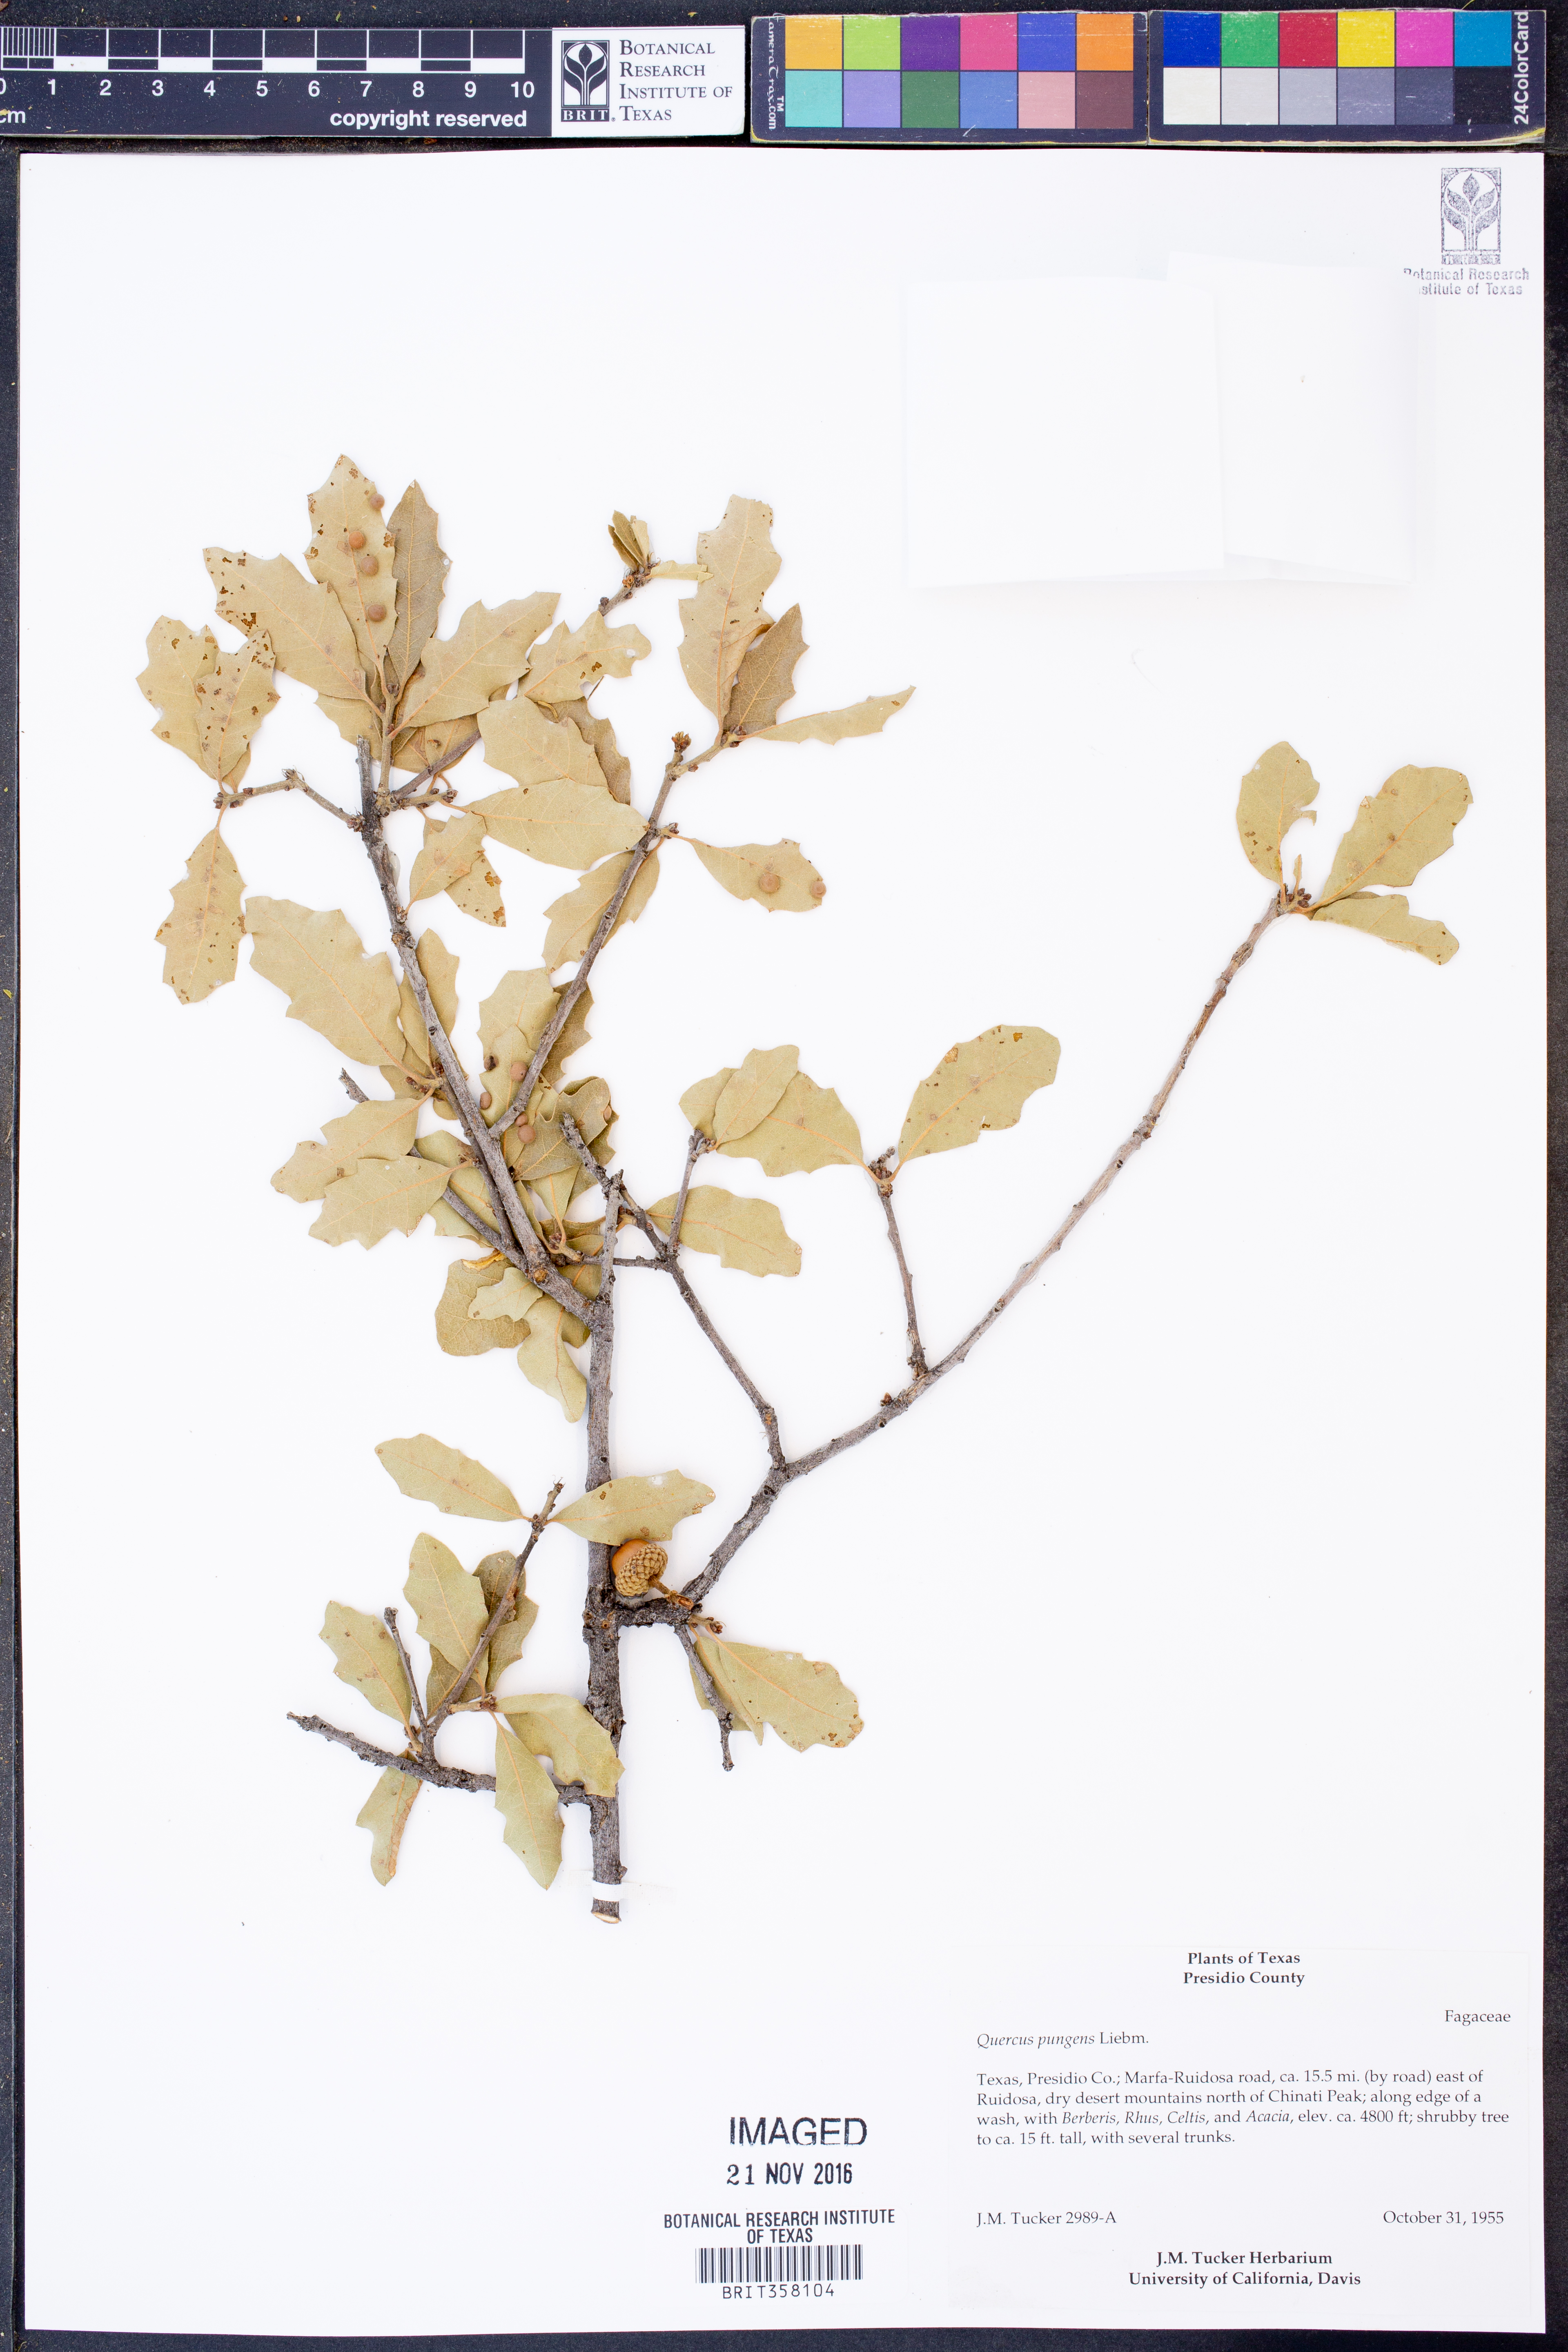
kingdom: Plantae
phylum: Tracheophyta
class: Magnoliopsida
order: Fagales
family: Fagaceae
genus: Quercus
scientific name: Quercus pungens
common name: Pungent oak
